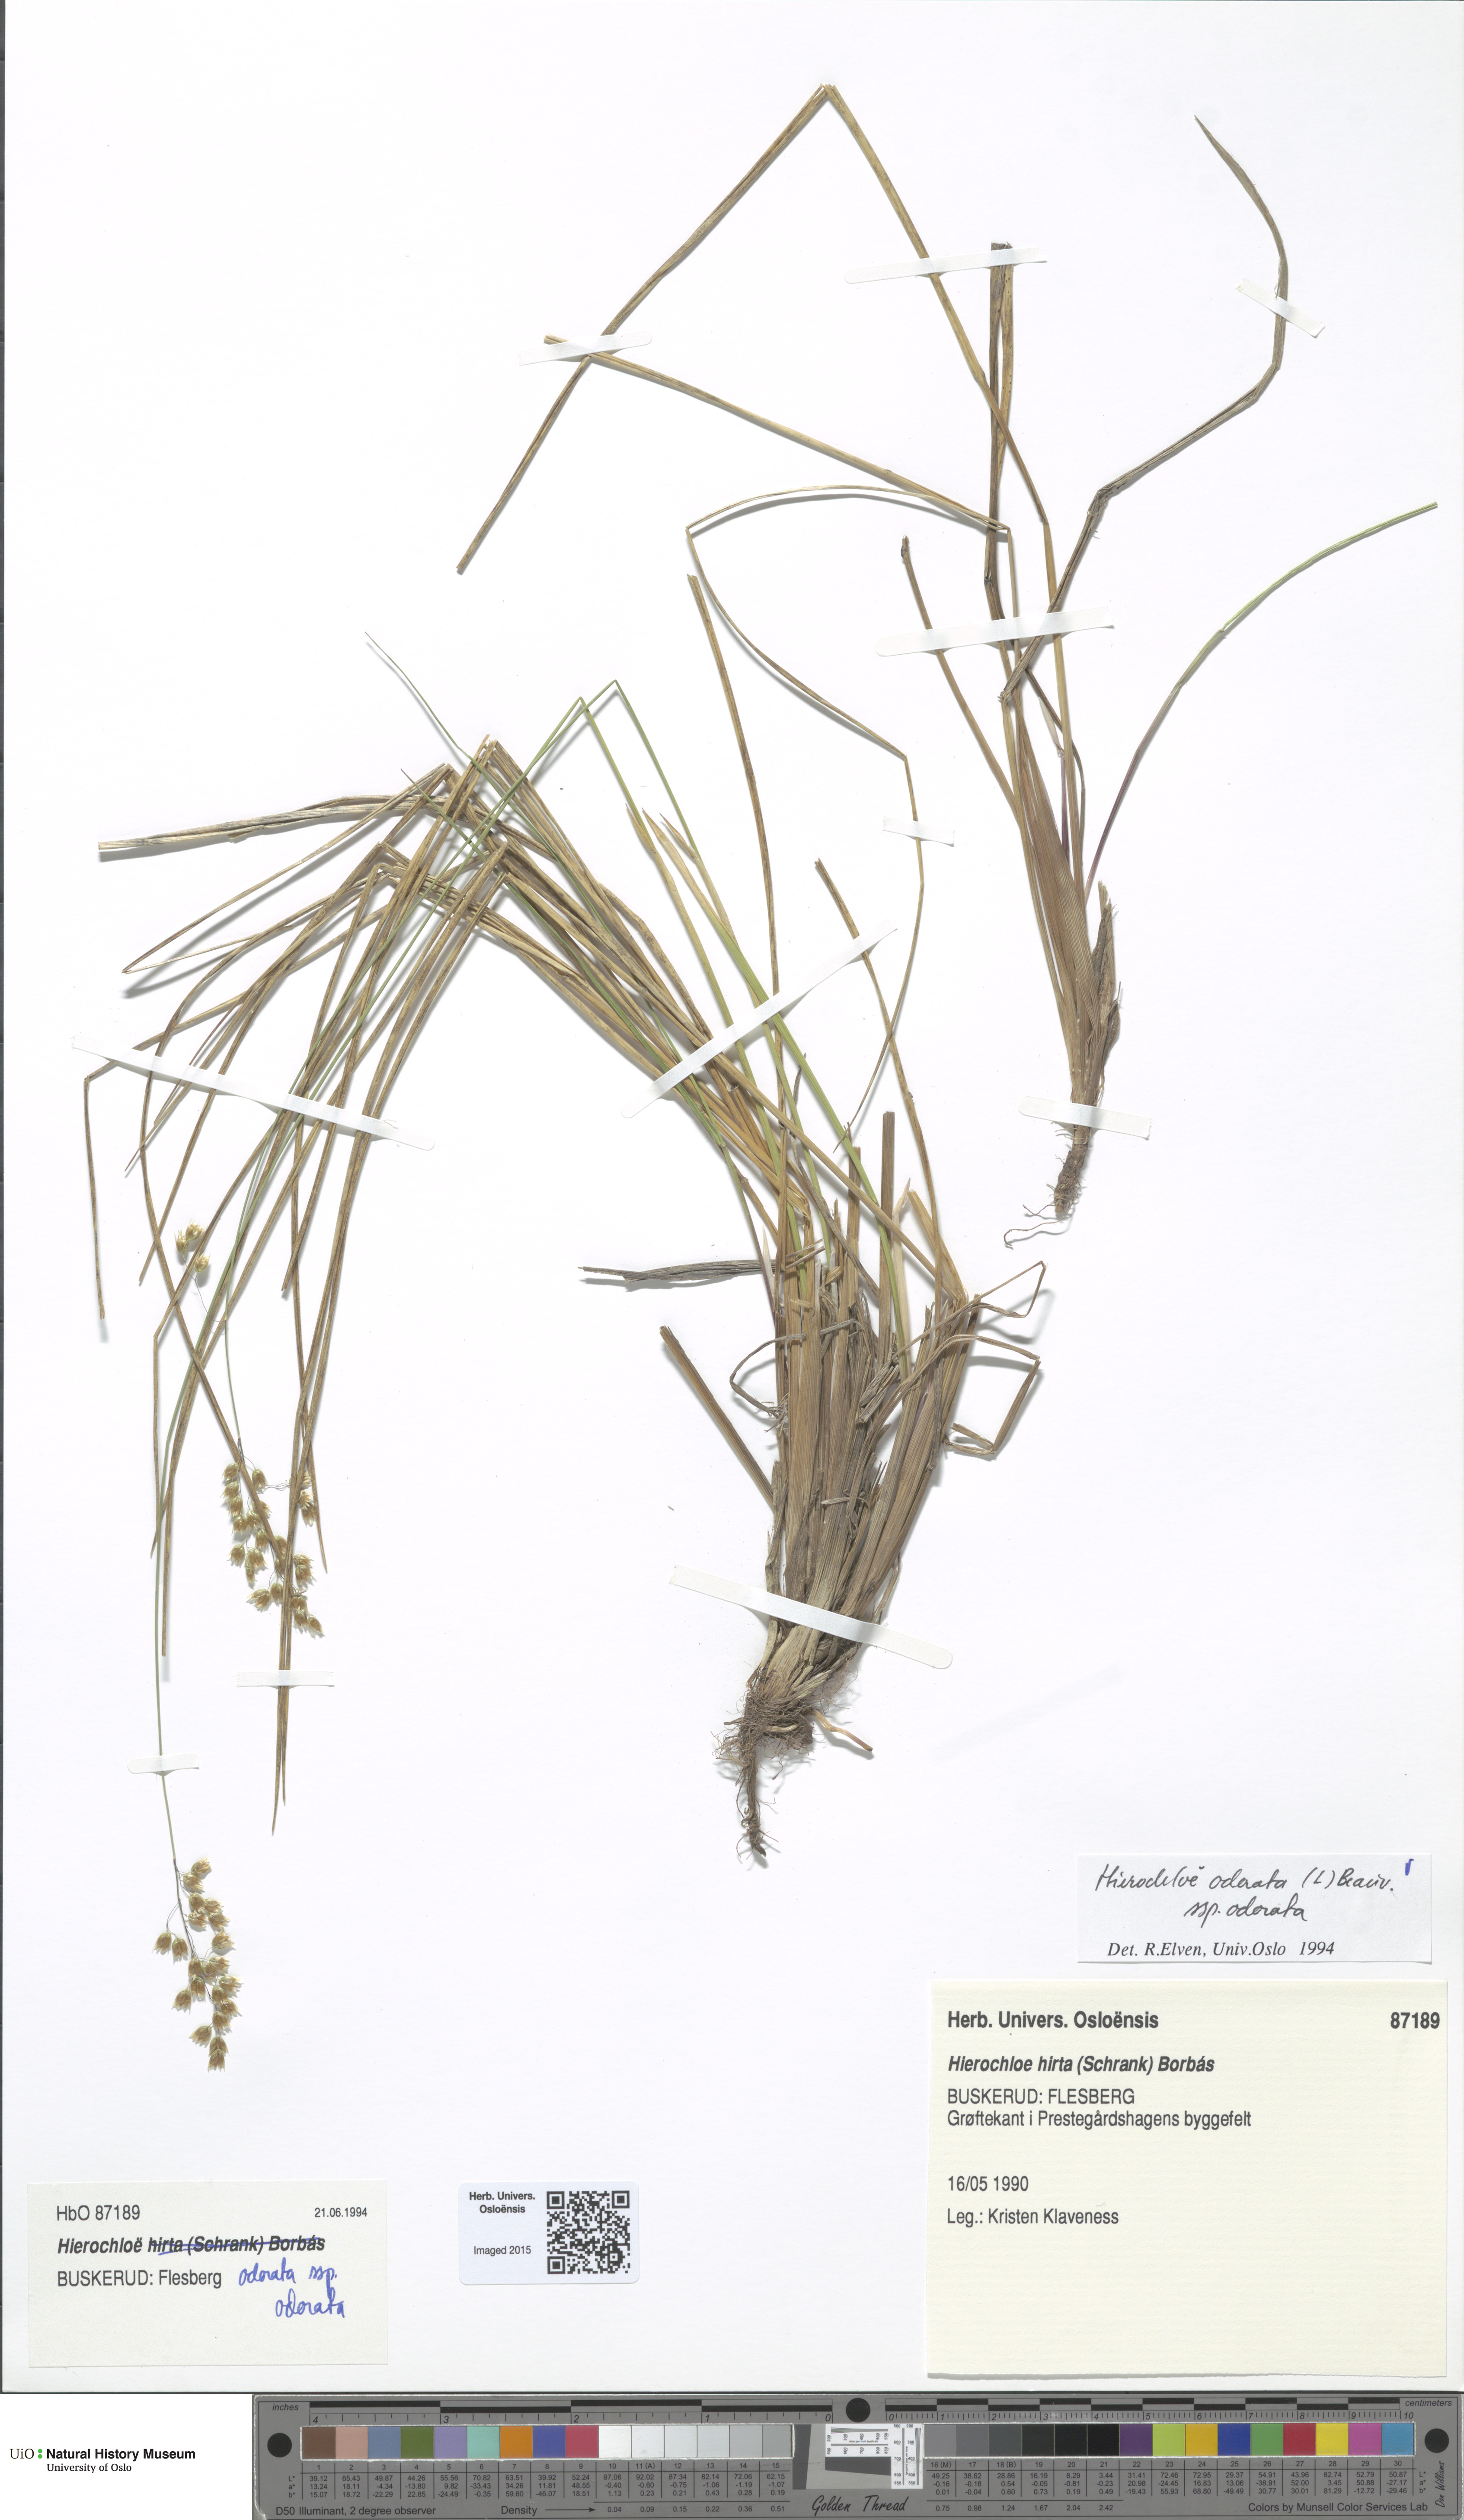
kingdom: Plantae
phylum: Tracheophyta
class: Liliopsida
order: Poales
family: Poaceae
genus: Anthoxanthum
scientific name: Anthoxanthum nitens
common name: Holy grass
